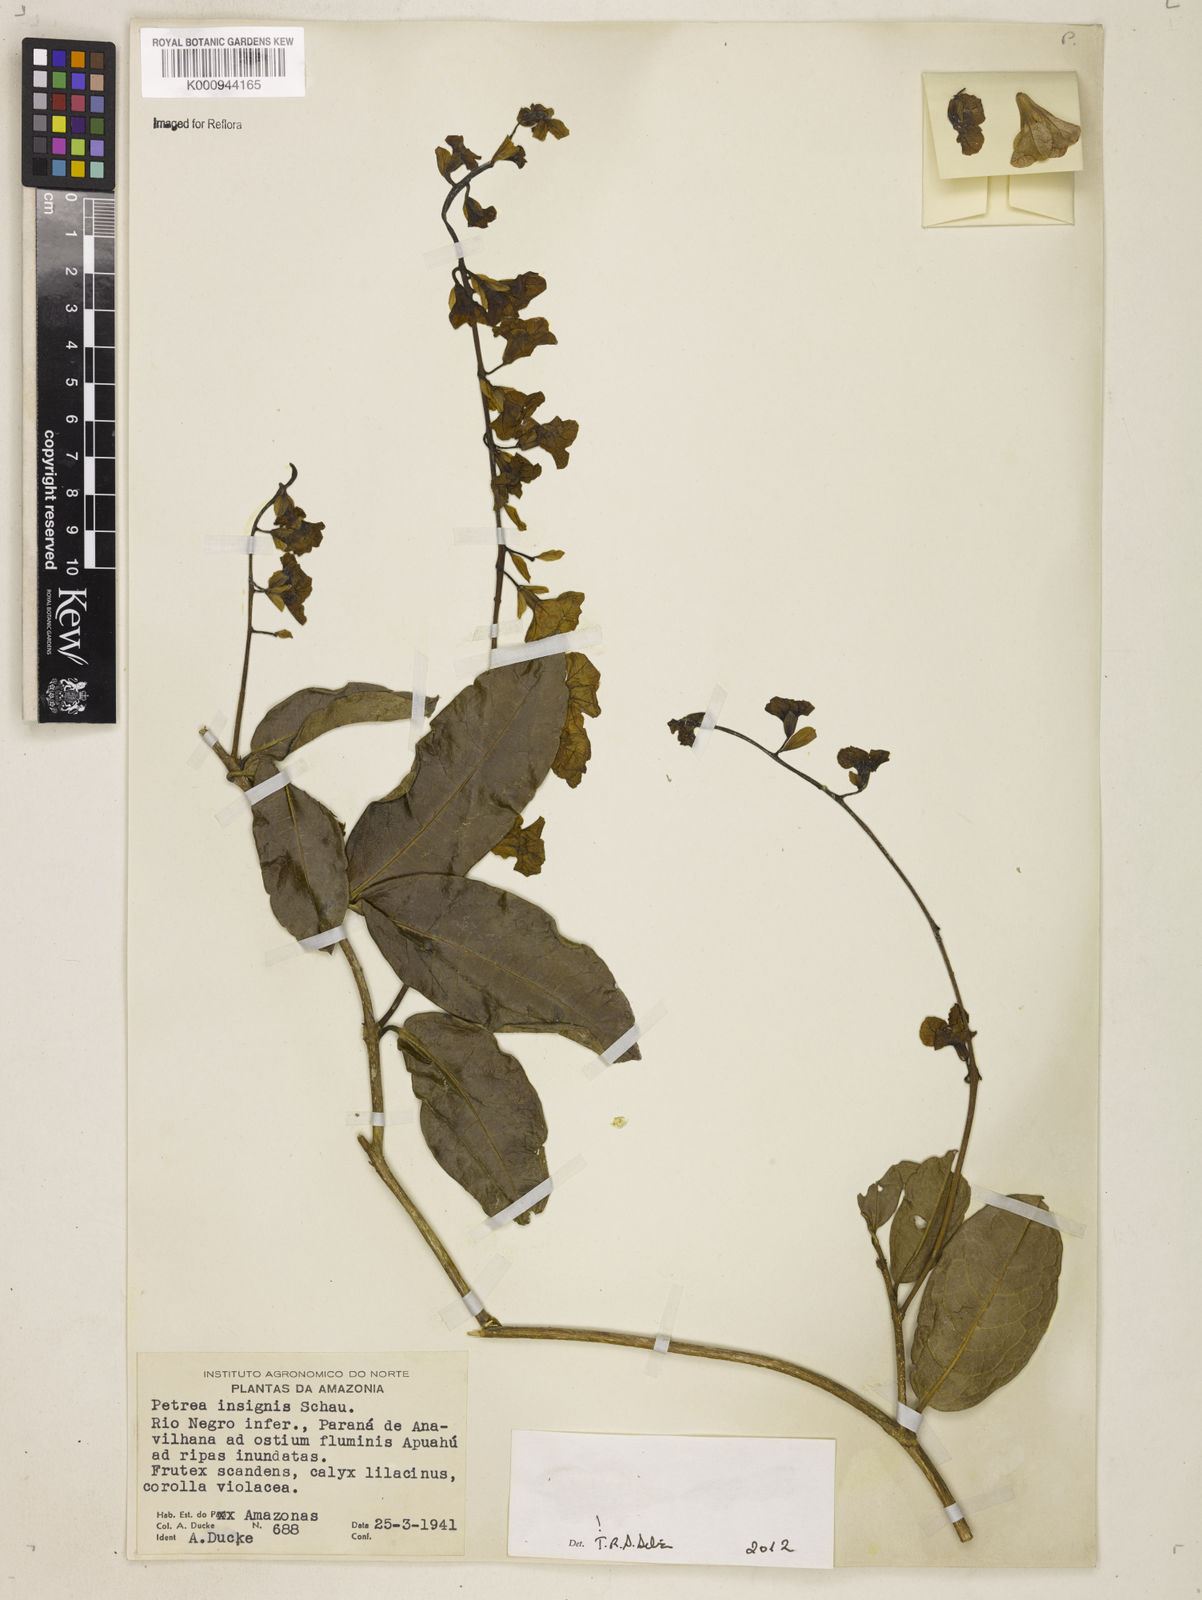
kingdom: Plantae
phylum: Tracheophyta
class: Magnoliopsida
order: Lamiales
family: Verbenaceae
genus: Petrea
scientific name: Petrea insignis
